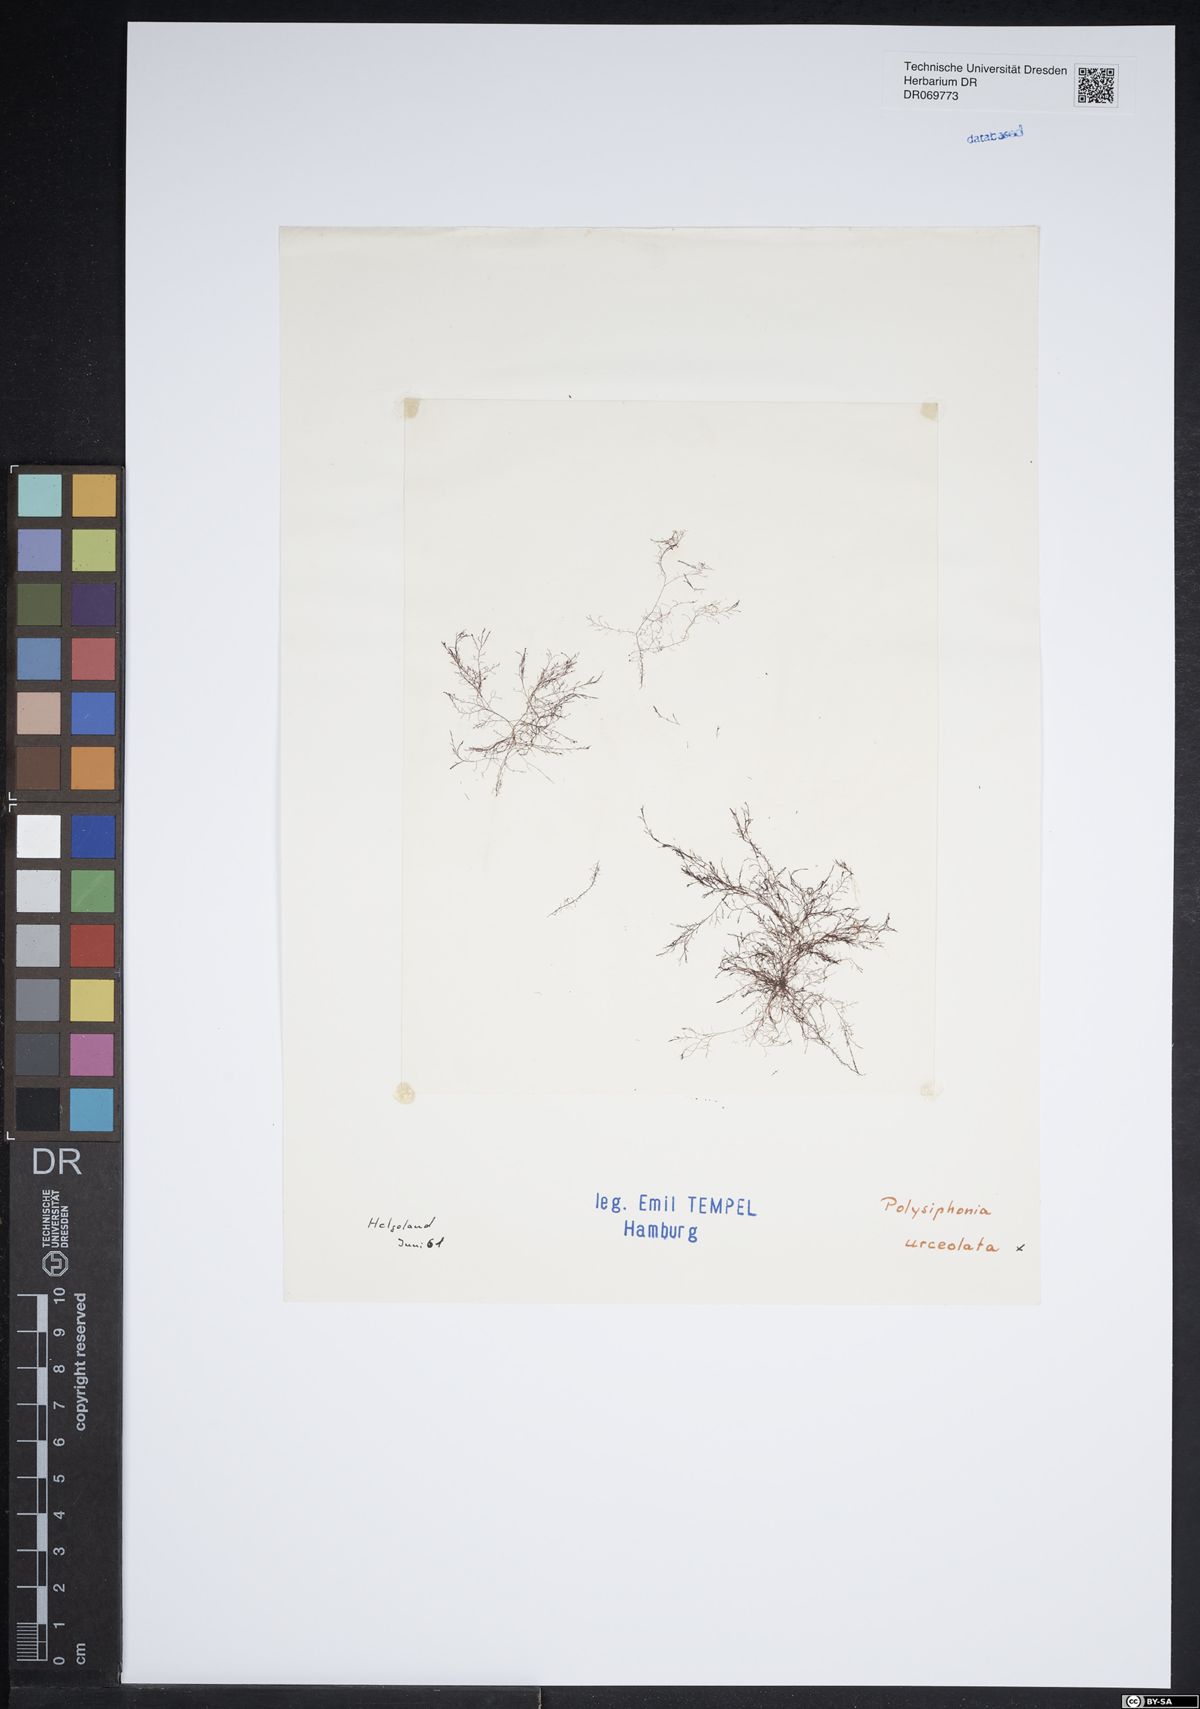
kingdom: Plantae
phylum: Rhodophyta
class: Florideophyceae
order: Ceramiales
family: Rhodomelaceae
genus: Polysiphonia
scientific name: Polysiphonia stricta
